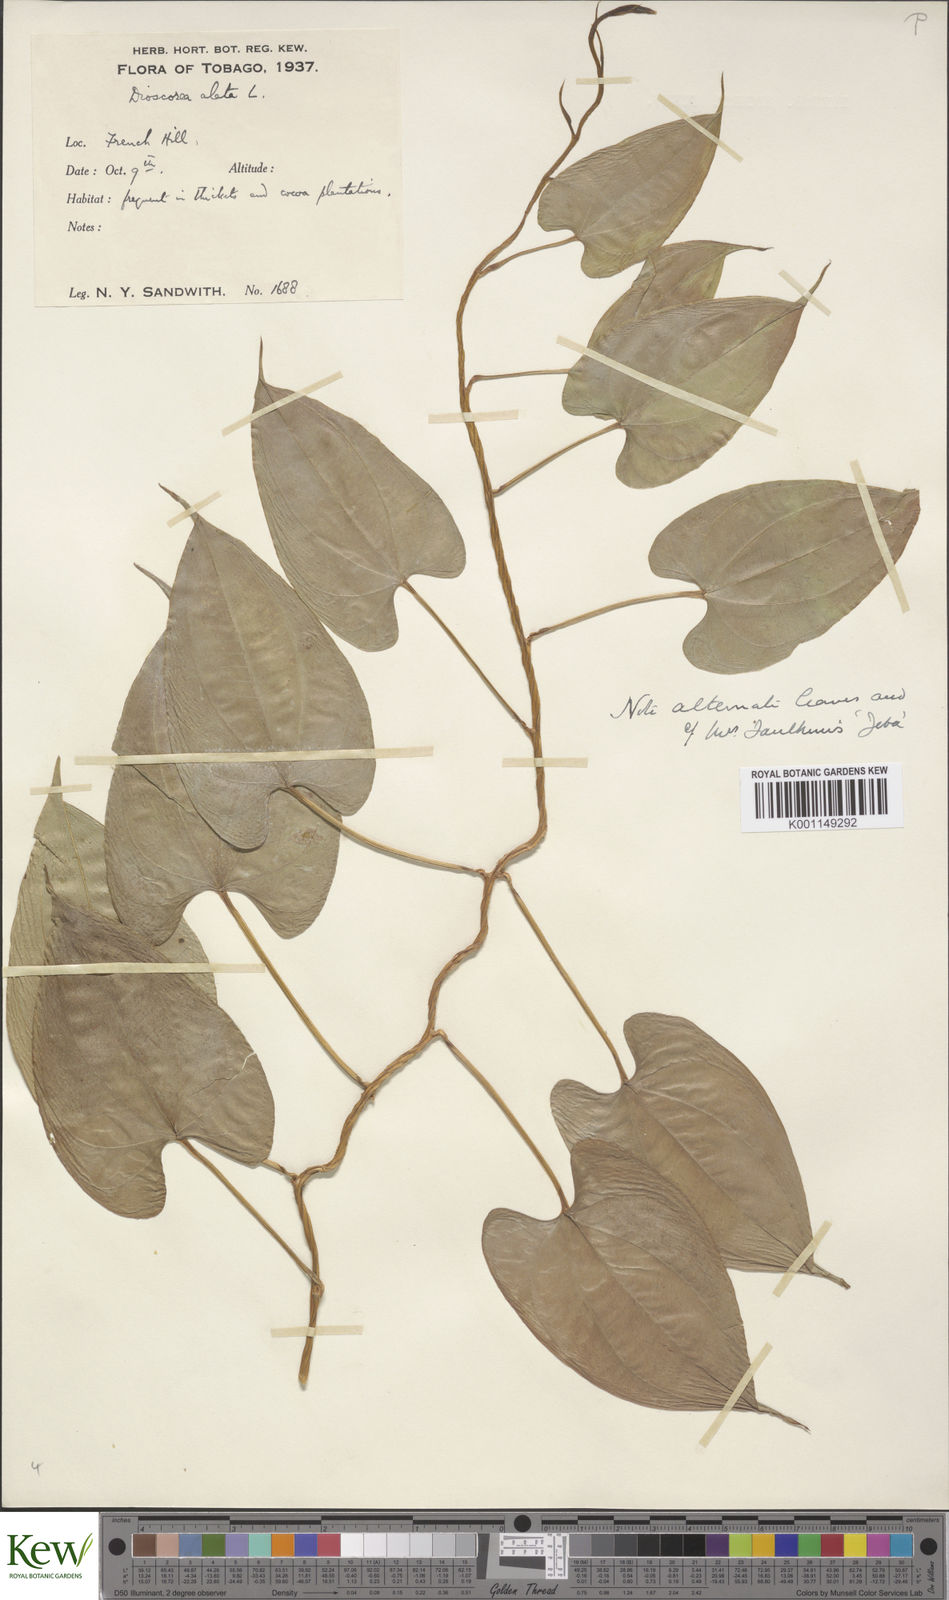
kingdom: Plantae
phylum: Tracheophyta
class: Liliopsida
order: Dioscoreales
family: Dioscoreaceae
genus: Dioscorea
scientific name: Dioscorea alata
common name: Water yam
